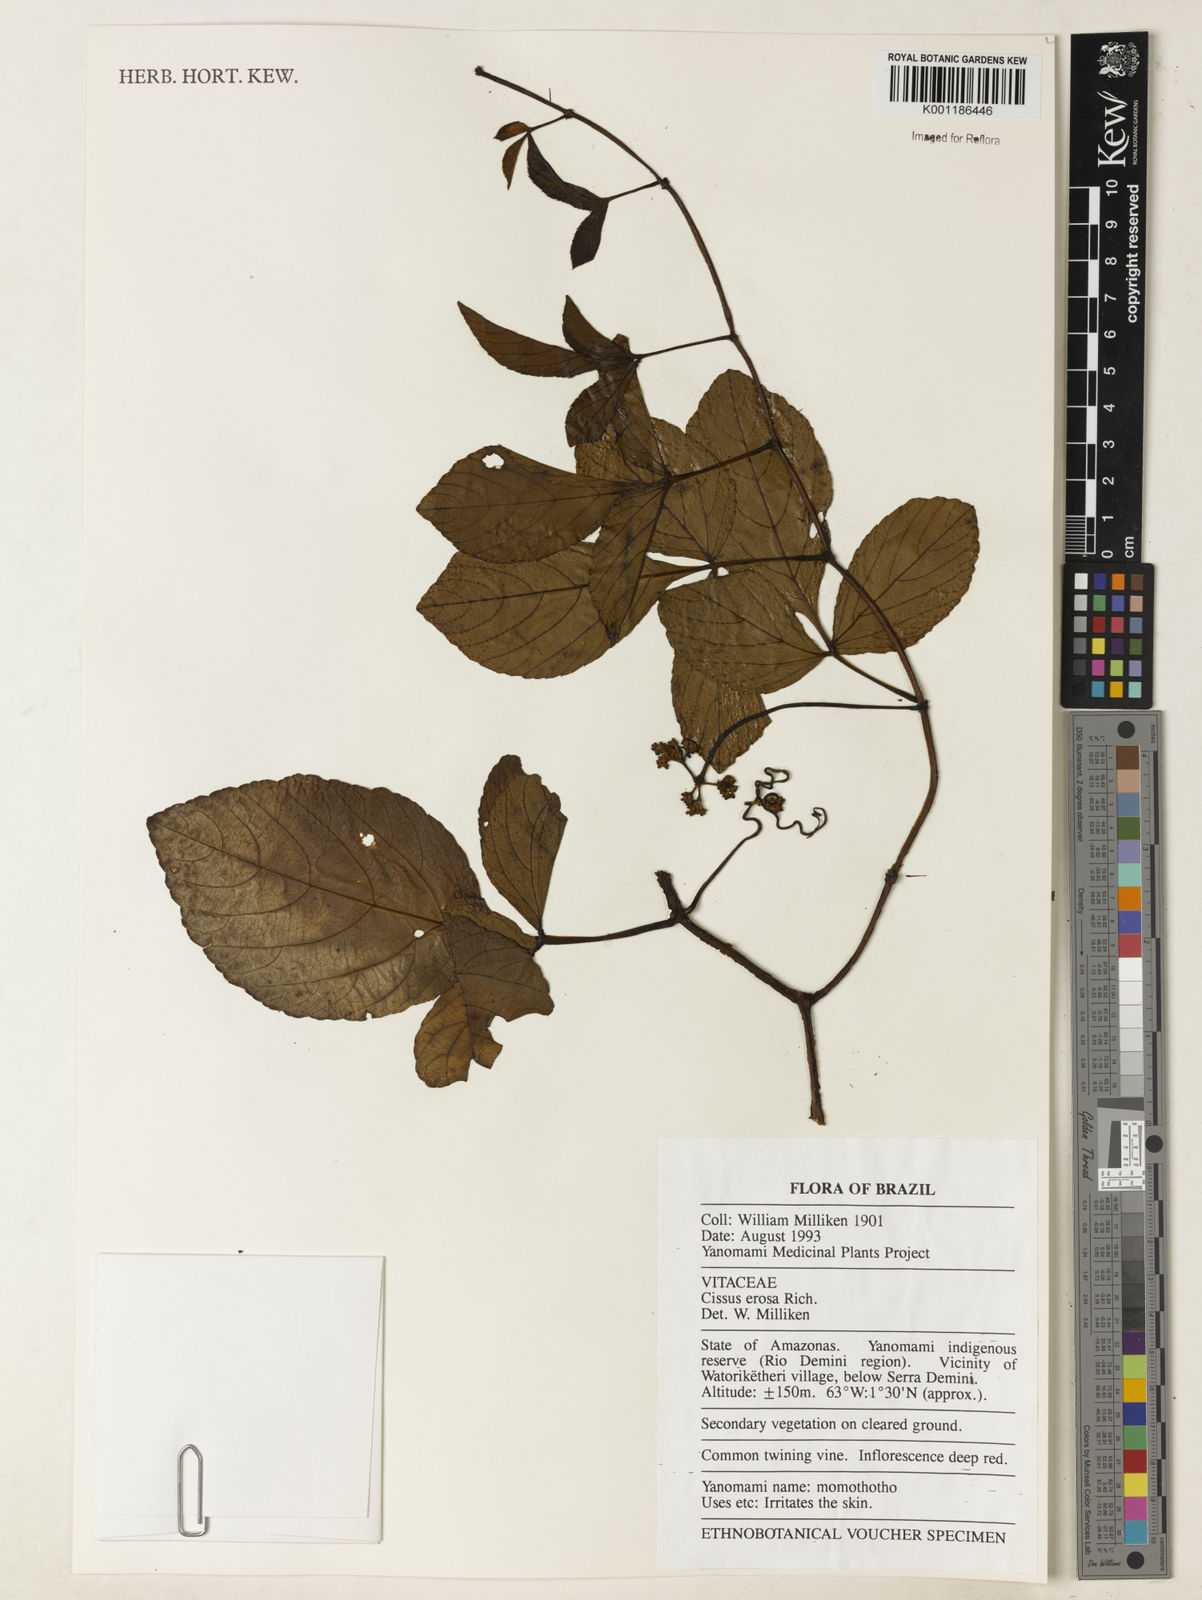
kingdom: Plantae
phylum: Tracheophyta
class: Magnoliopsida
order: Vitales
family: Vitaceae
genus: Cissus
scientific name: Cissus erosa
